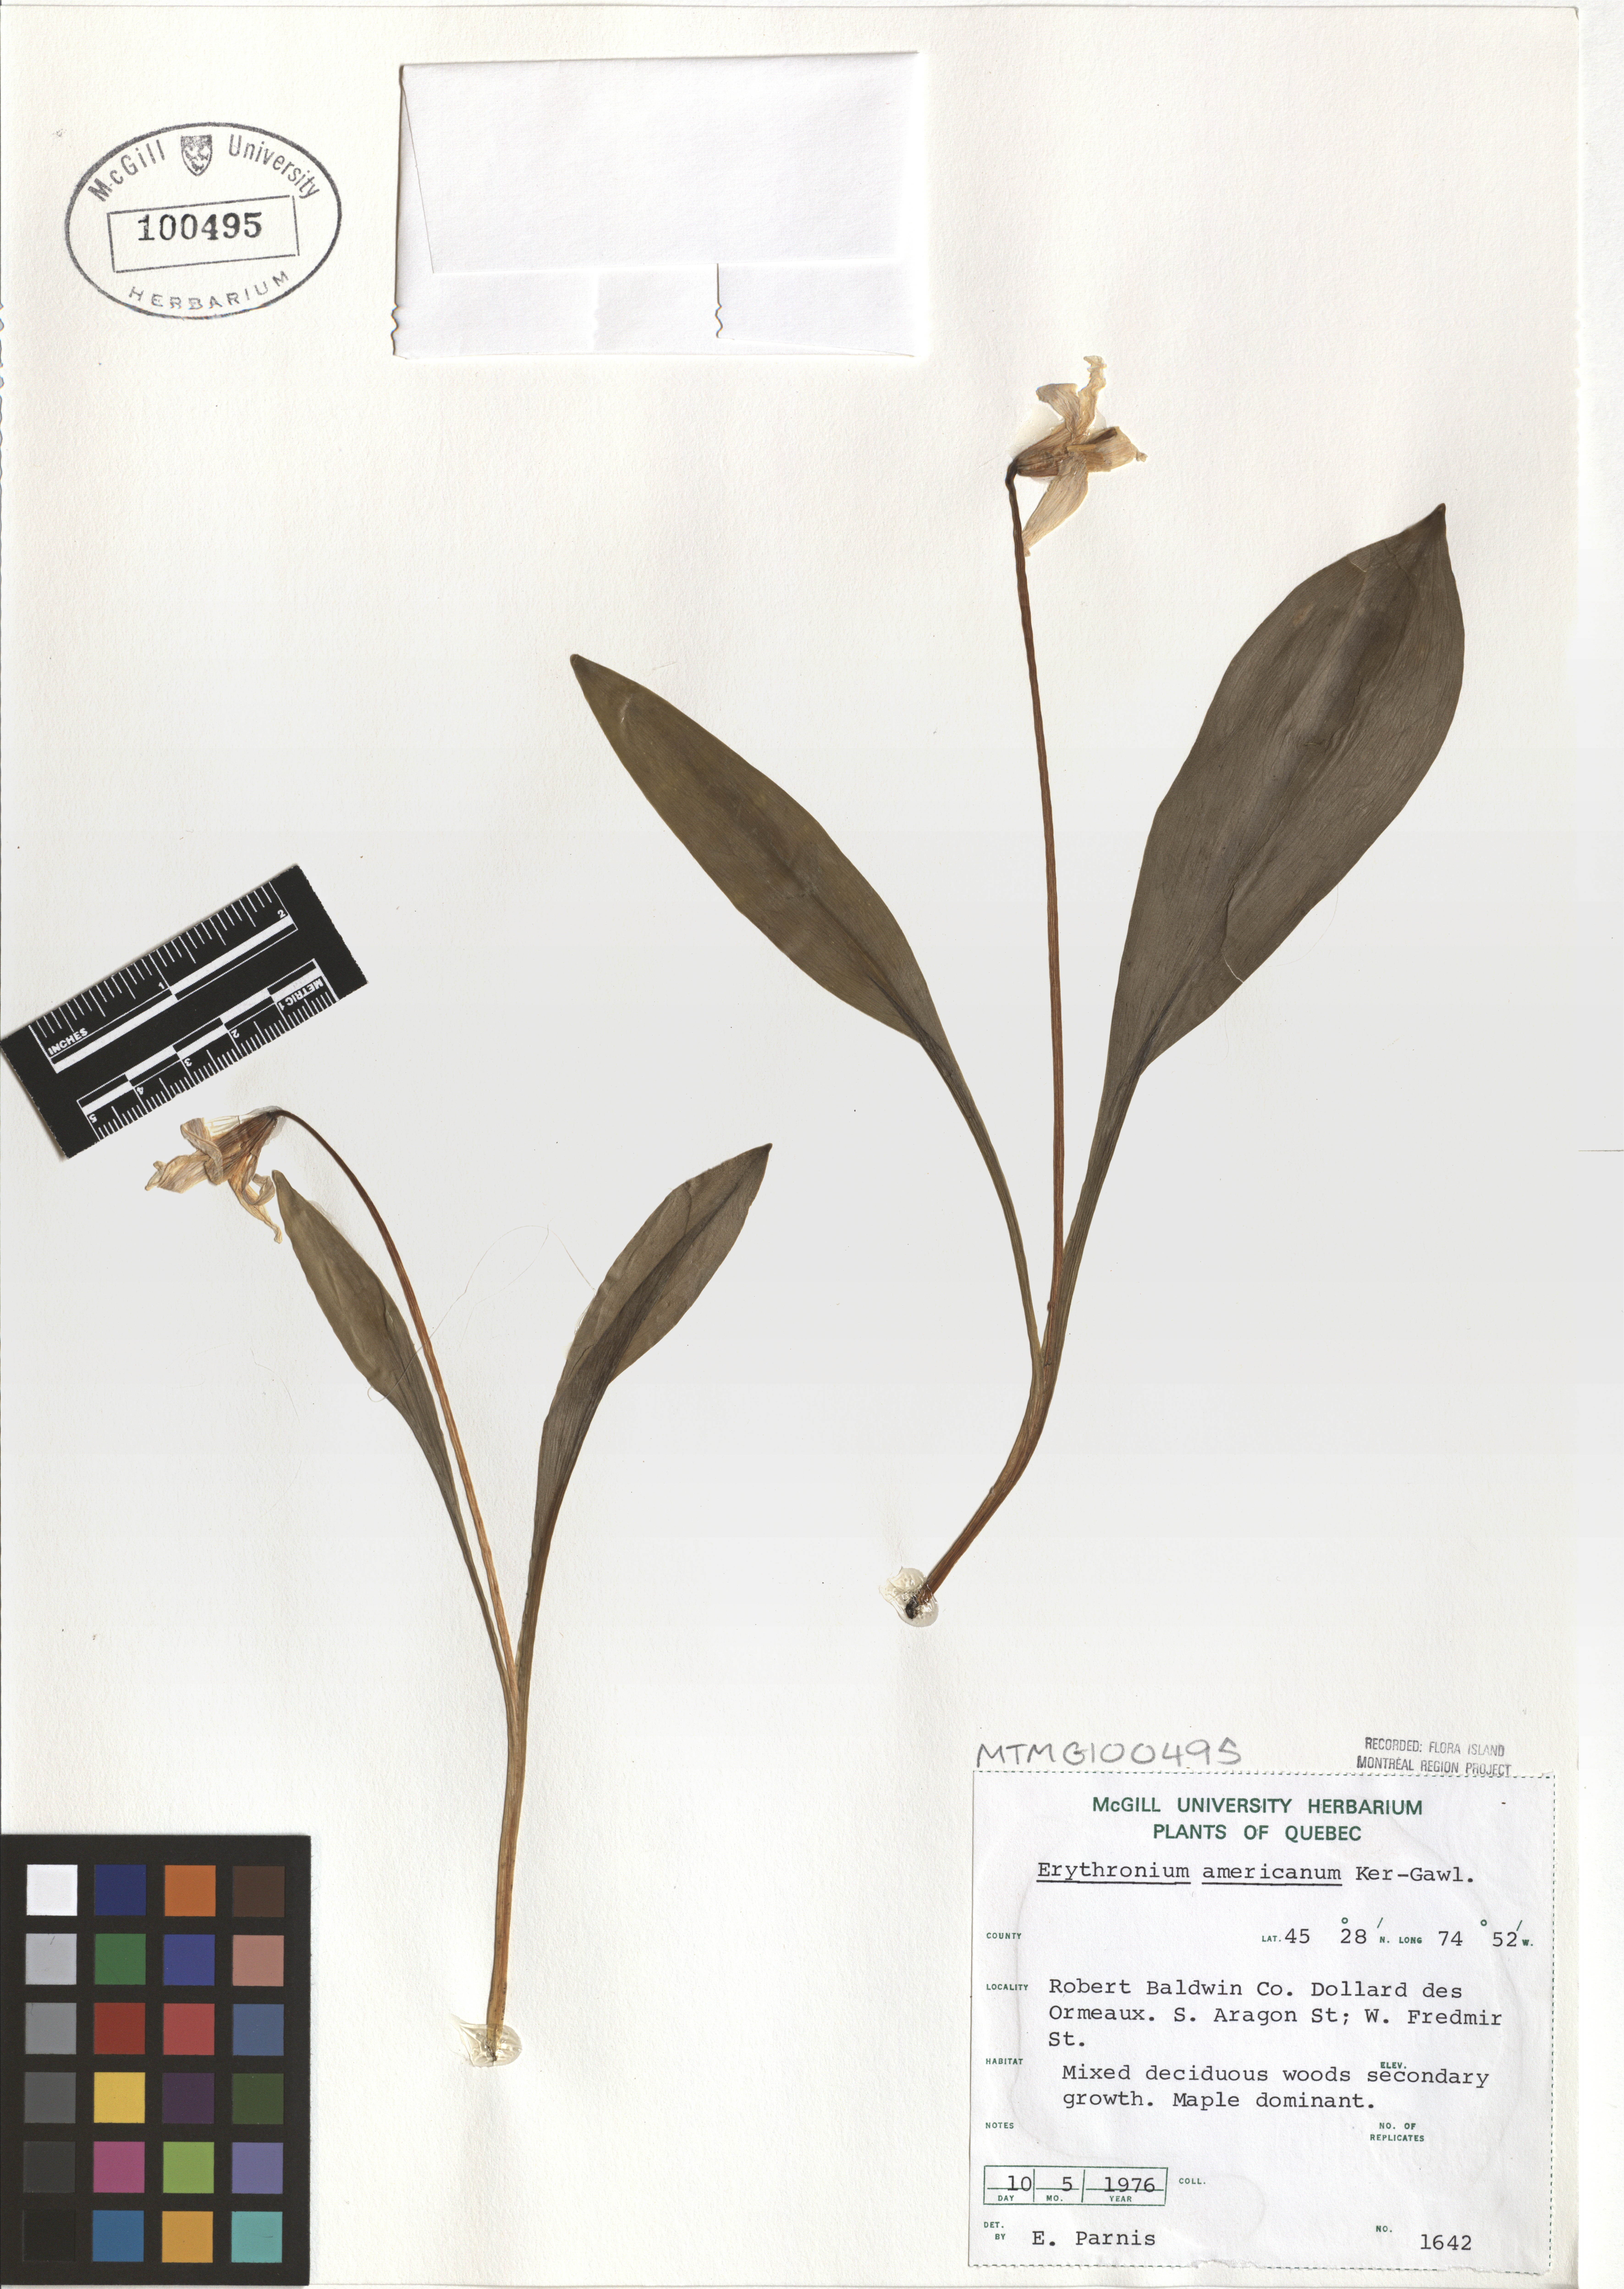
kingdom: Plantae
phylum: Tracheophyta
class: Liliopsida
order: Liliales
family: Liliaceae
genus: Erythronium
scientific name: Erythronium americanum
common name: Yellow adder's-tongue
